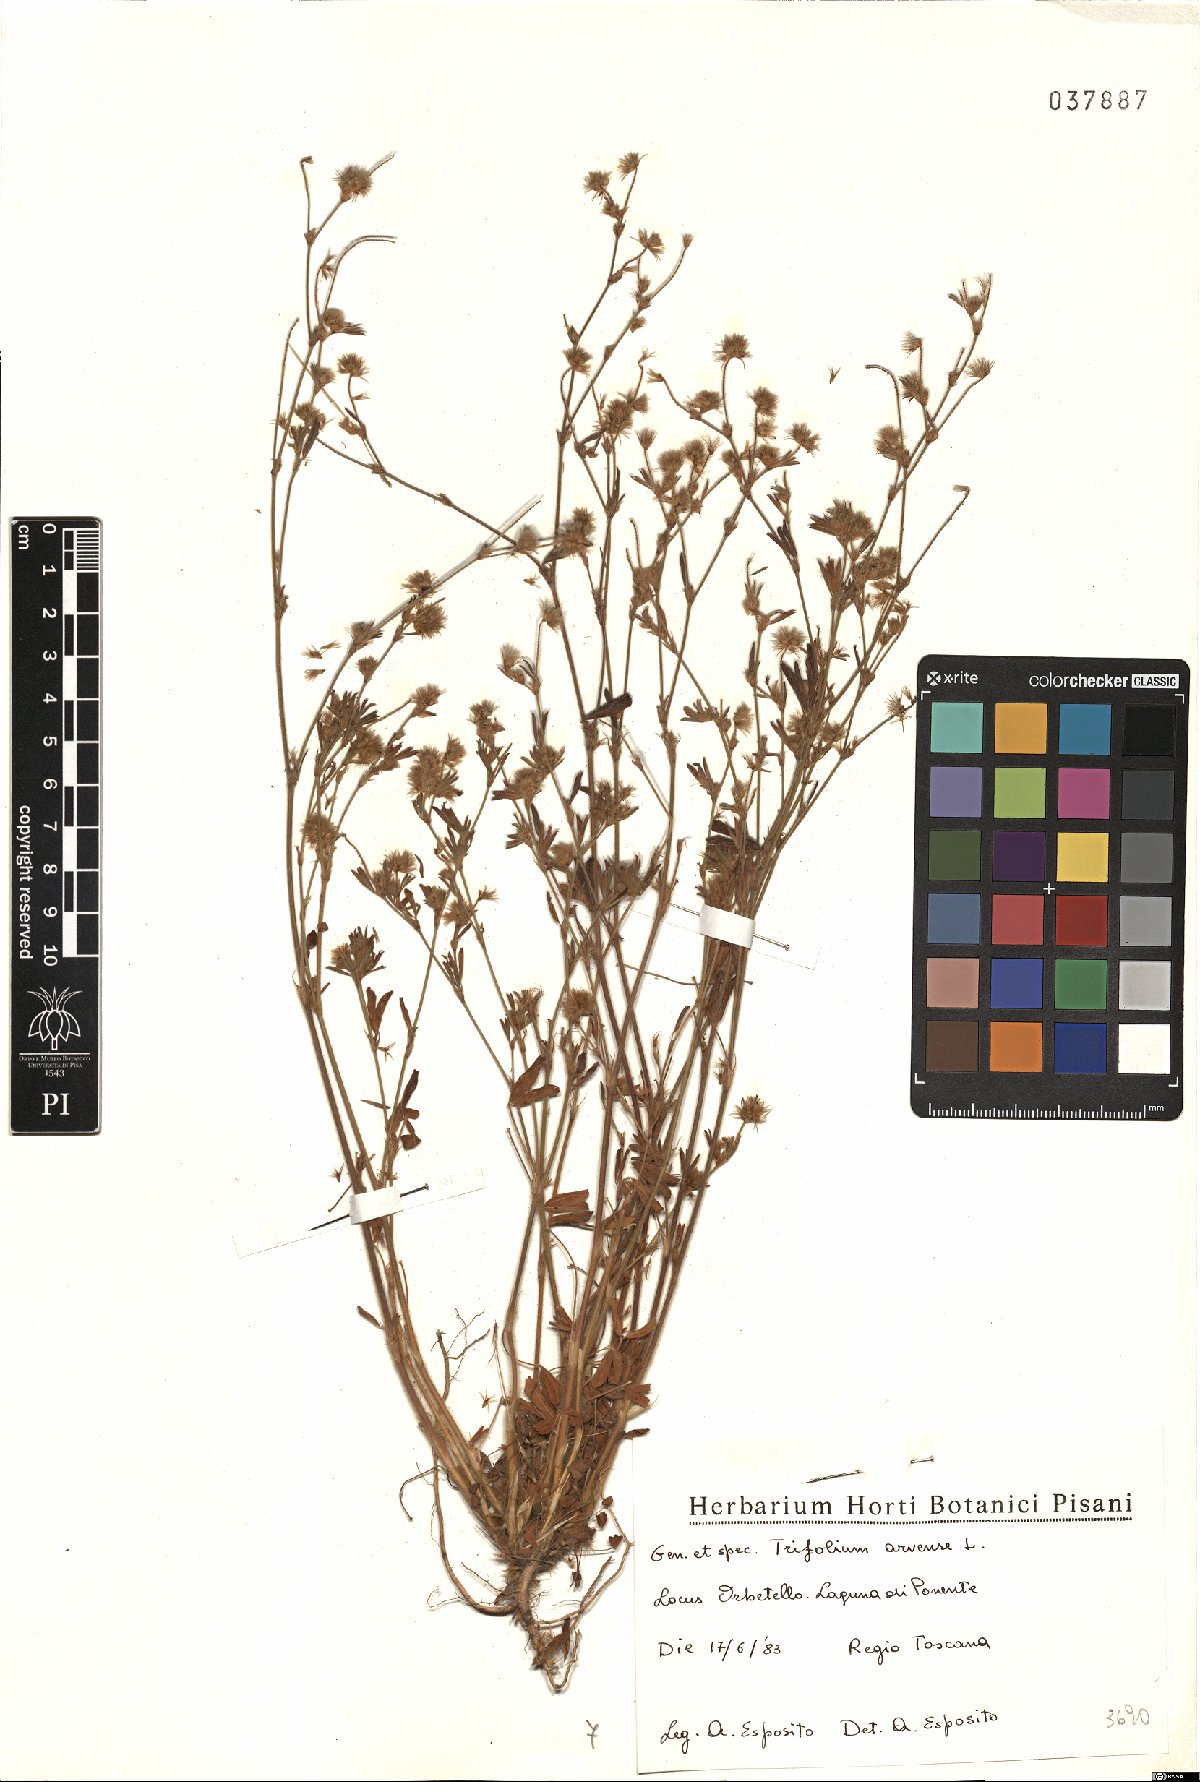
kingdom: Plantae
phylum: Tracheophyta
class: Magnoliopsida
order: Fabales
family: Fabaceae
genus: Trifolium
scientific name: Trifolium arvense
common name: Hare's-foot clover
